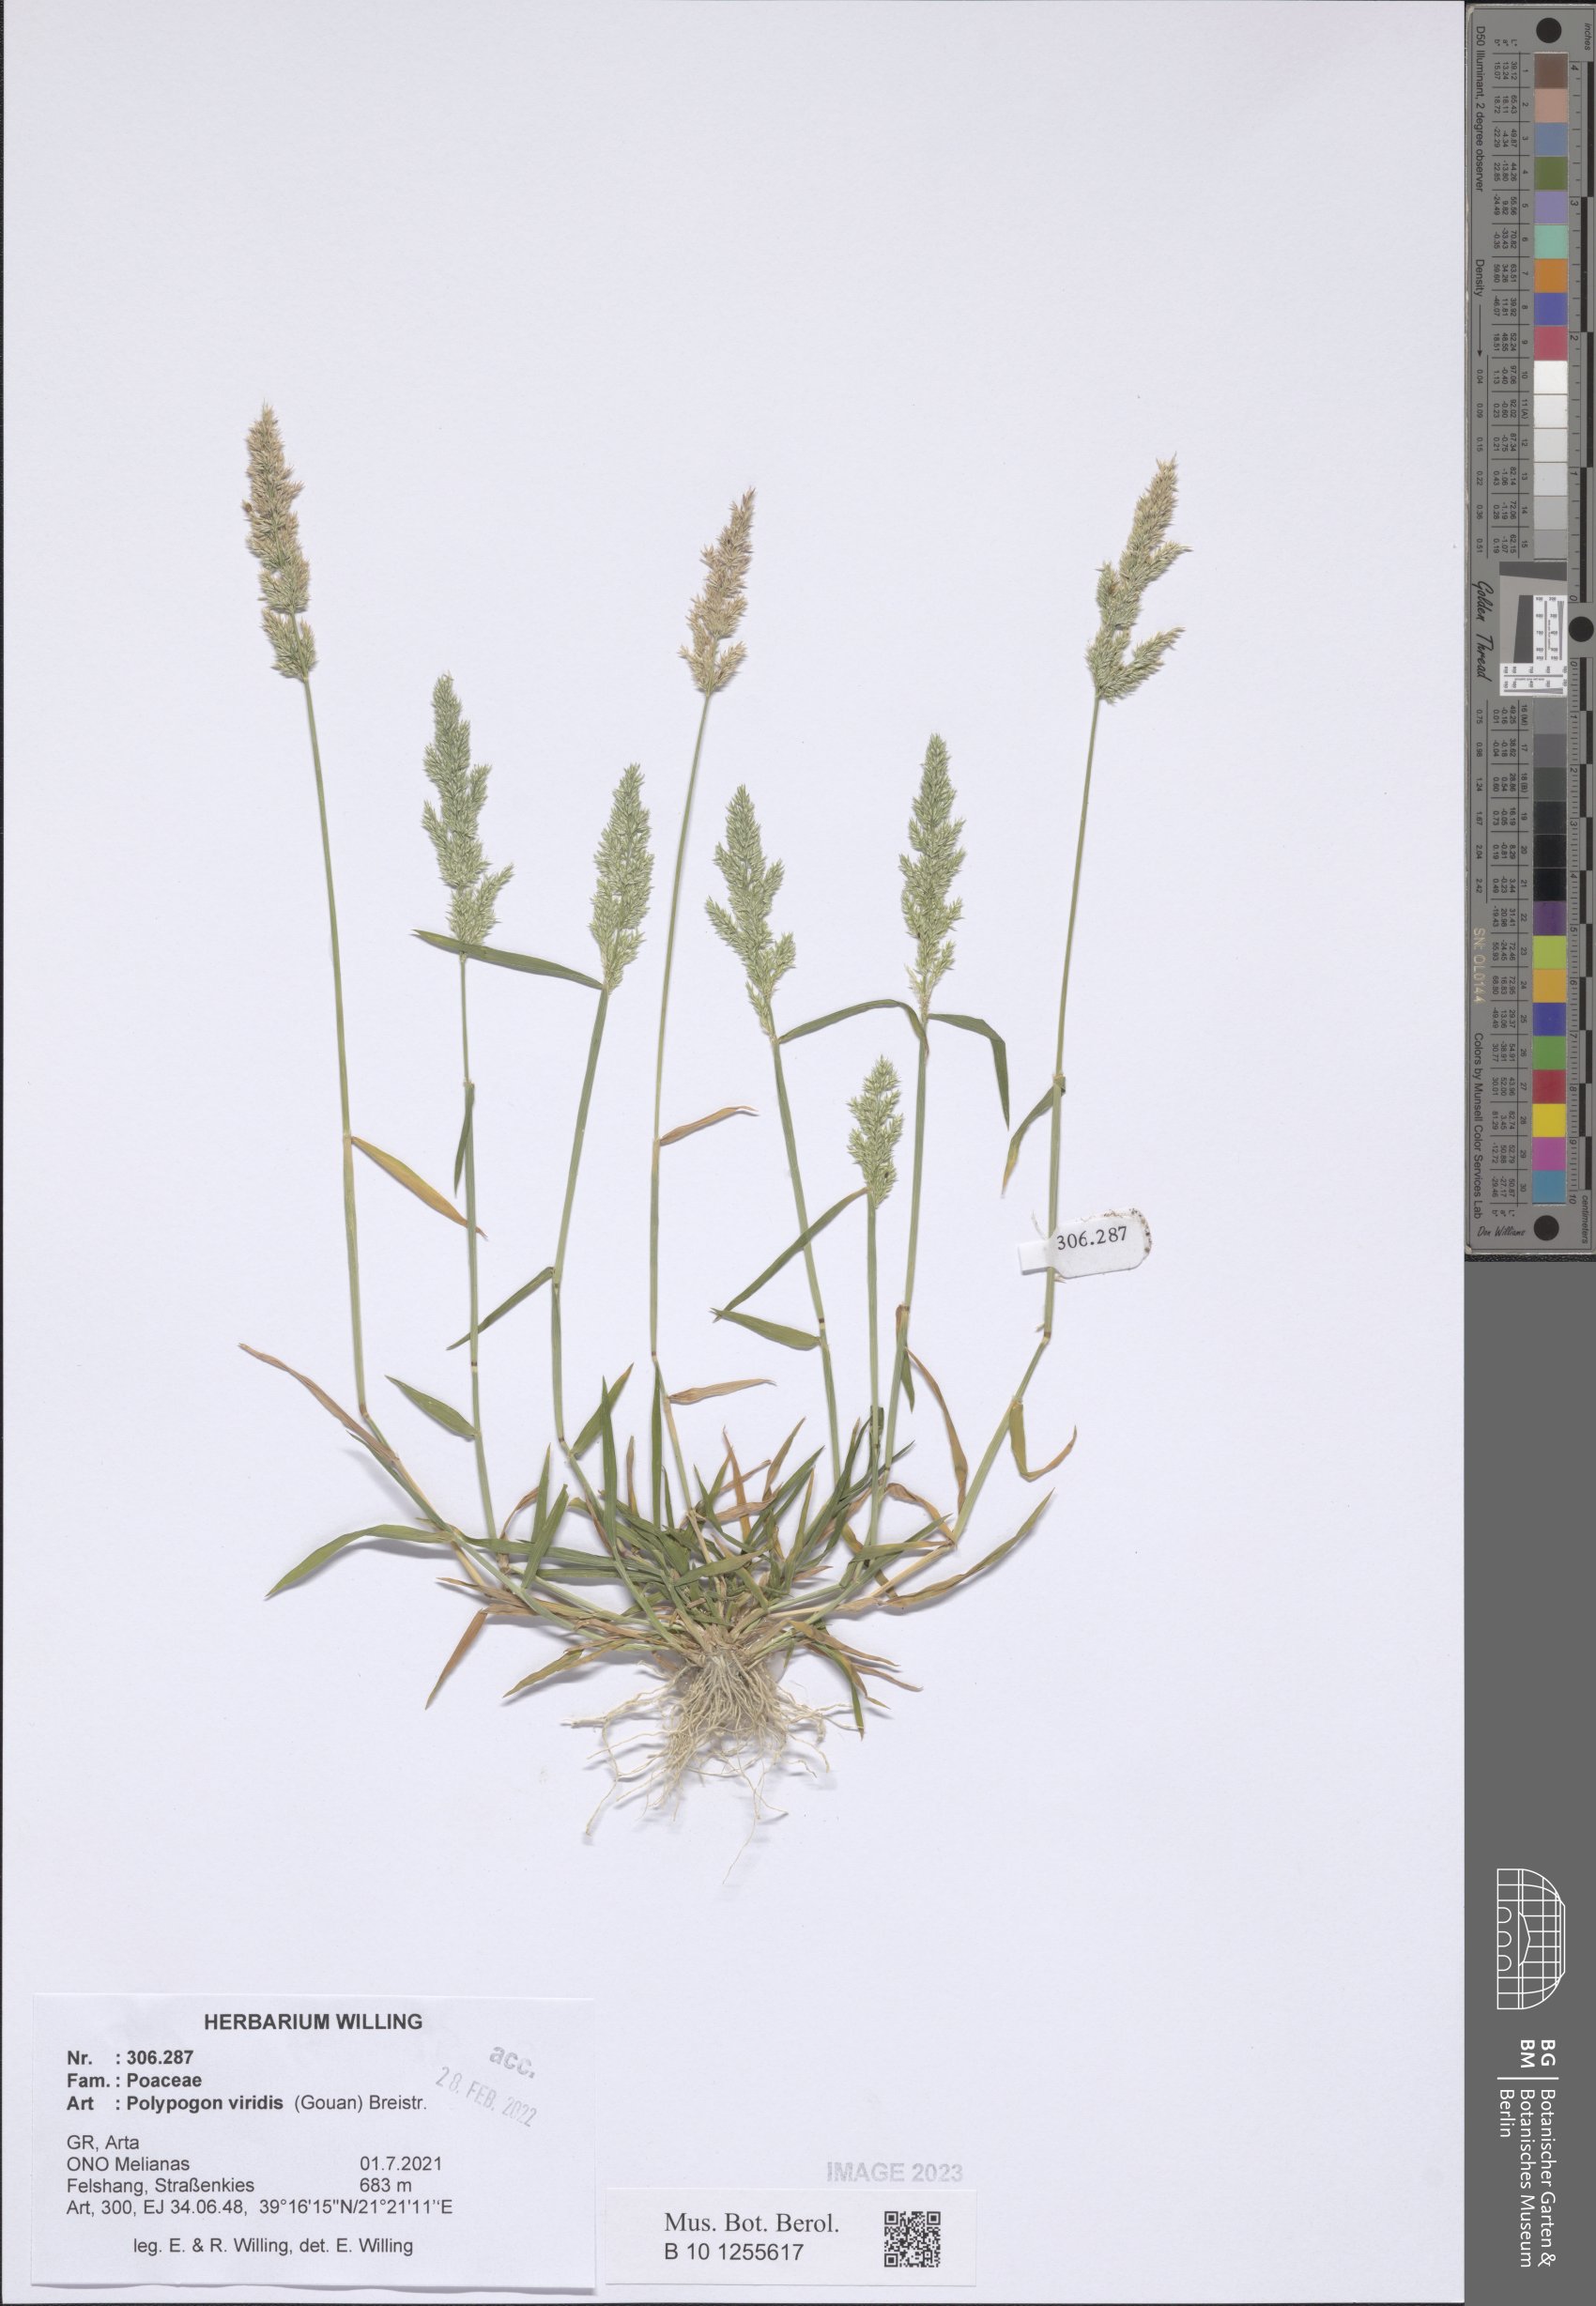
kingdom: Plantae
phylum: Tracheophyta
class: Liliopsida
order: Poales
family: Poaceae
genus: Polypogon
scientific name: Polypogon viridis
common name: Water bent
